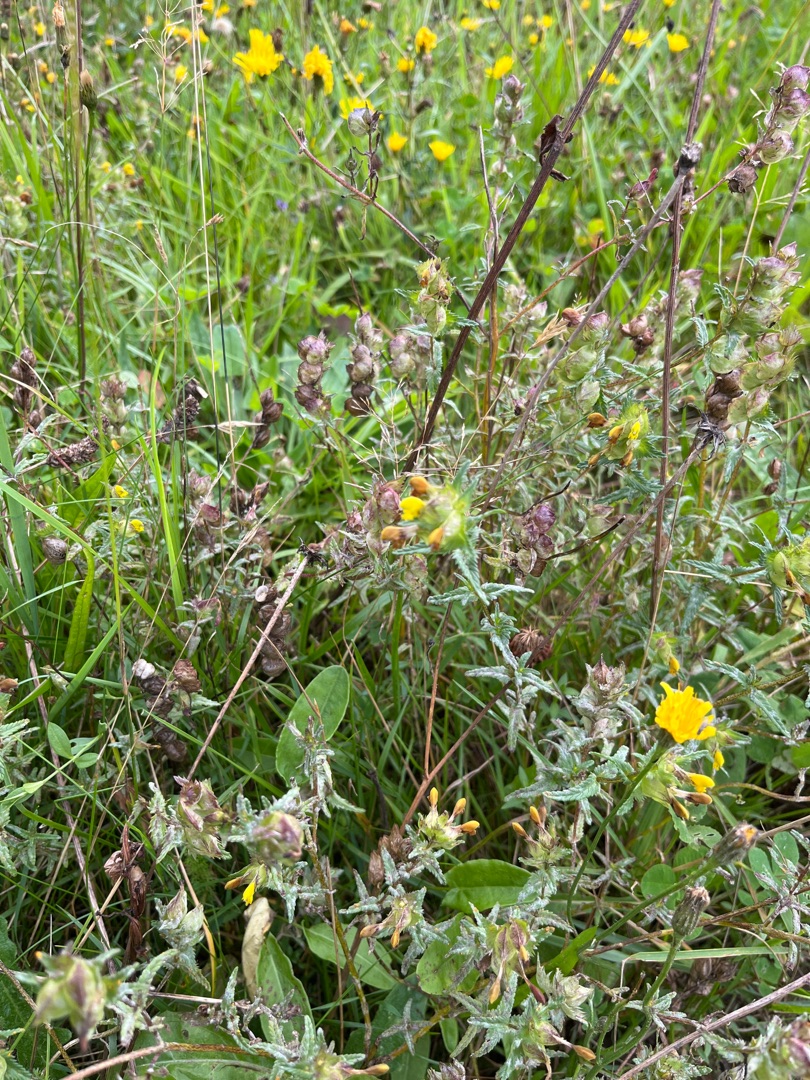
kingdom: Plantae
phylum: Tracheophyta
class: Magnoliopsida
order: Lamiales
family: Orobanchaceae
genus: Rhinanthus
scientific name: Rhinanthus minor
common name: Liden skjaller
